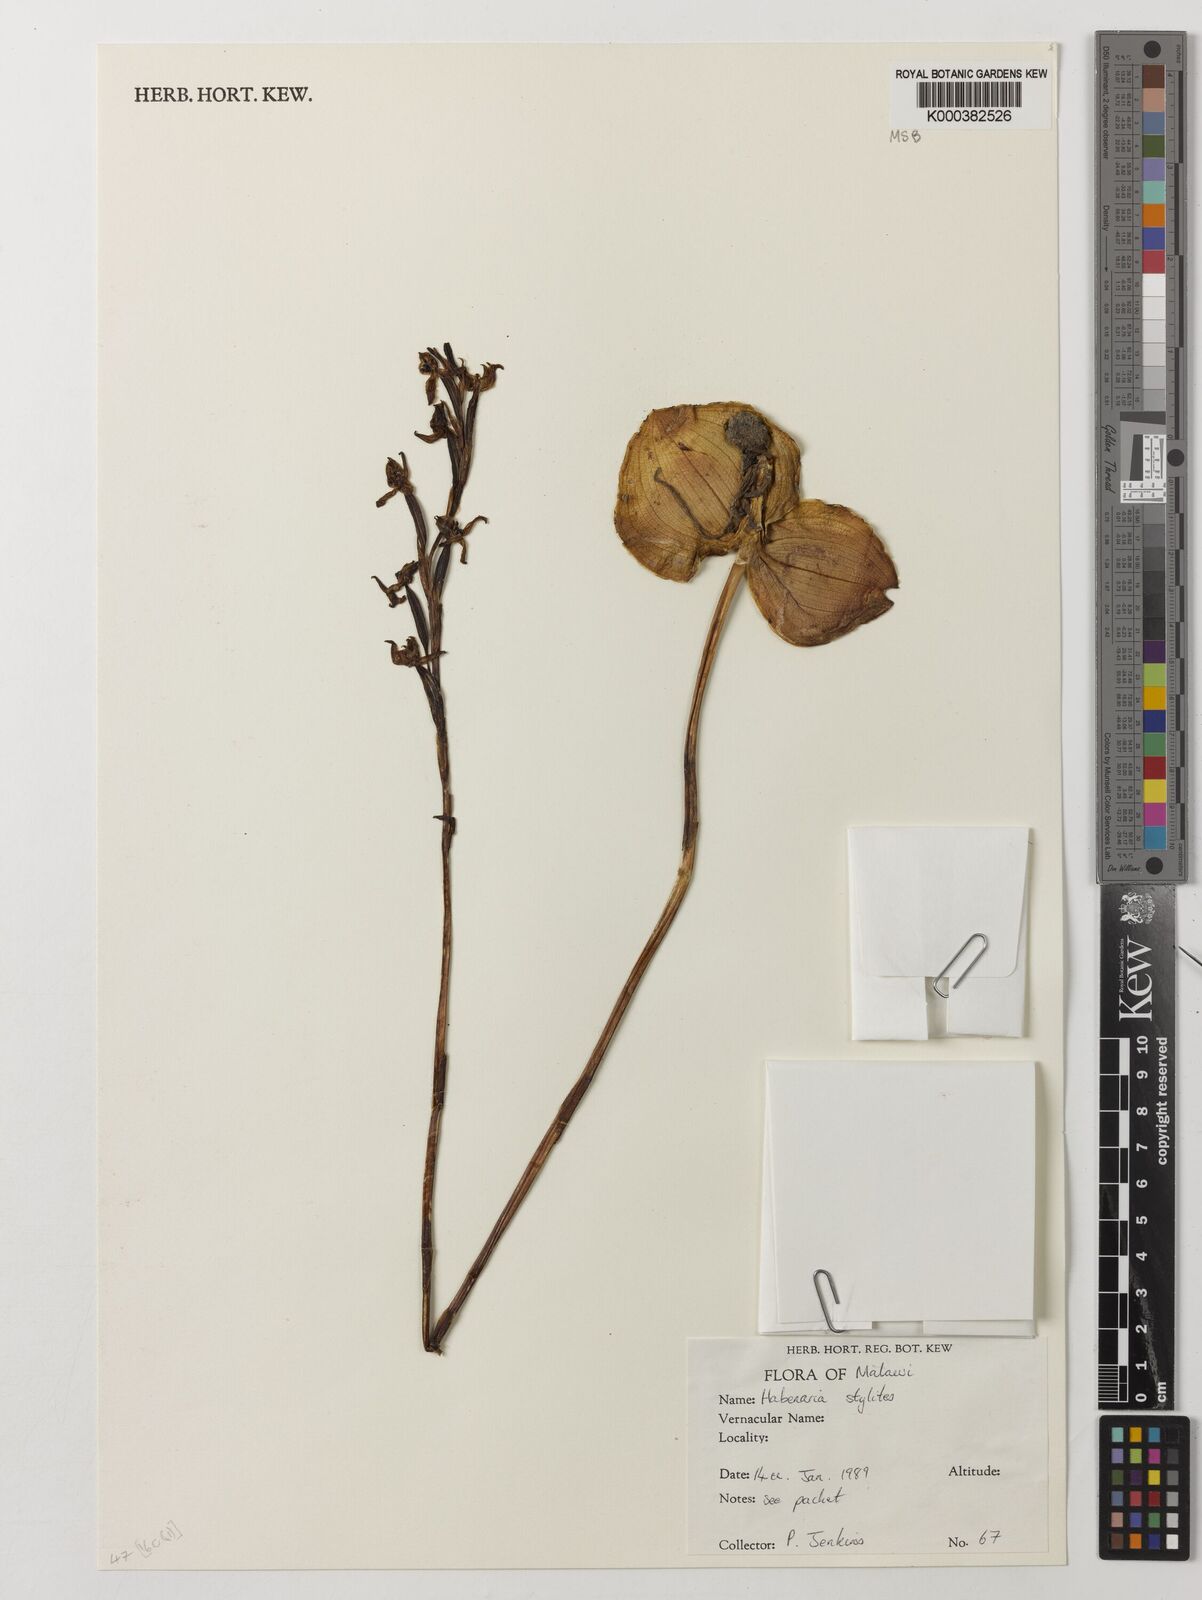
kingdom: Plantae
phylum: Tracheophyta
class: Liliopsida
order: Asparagales
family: Orchidaceae
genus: Habenaria
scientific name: Habenaria stylites
